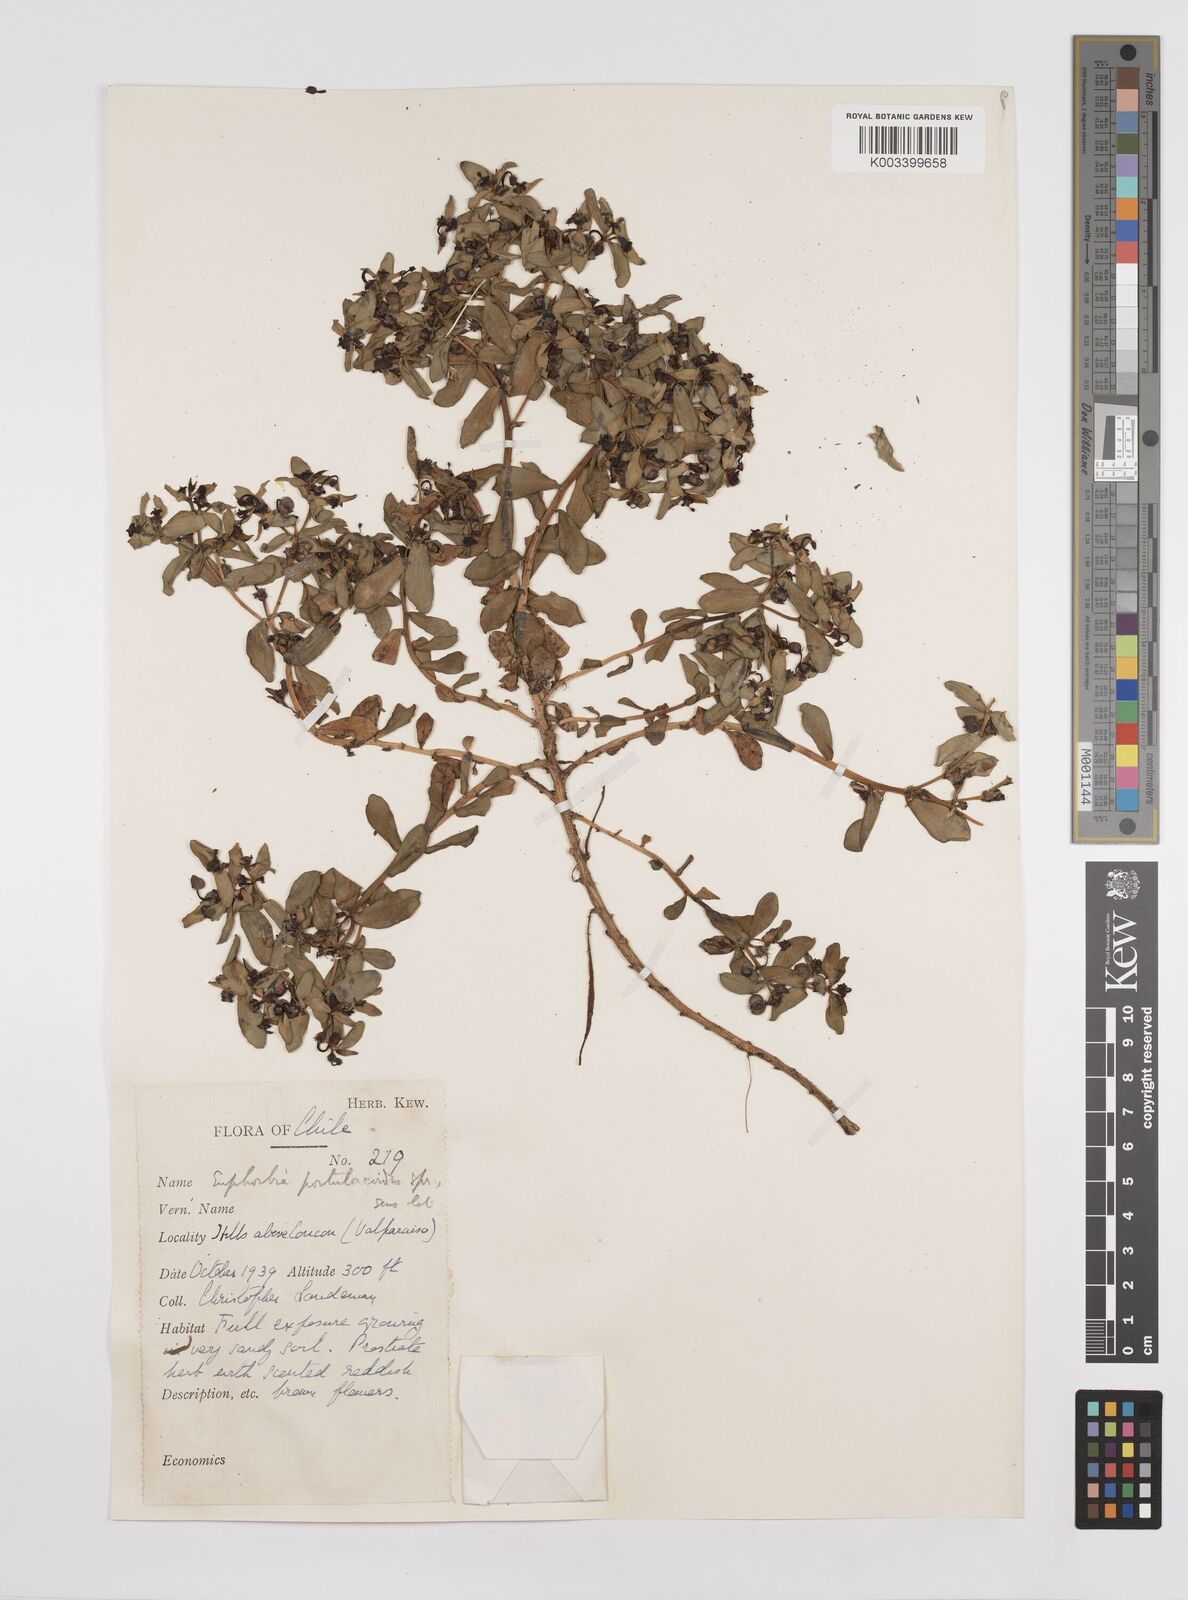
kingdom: Plantae
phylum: Tracheophyta
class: Magnoliopsida
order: Malpighiales
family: Euphorbiaceae
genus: Euphorbia
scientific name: Euphorbia portulacoides
